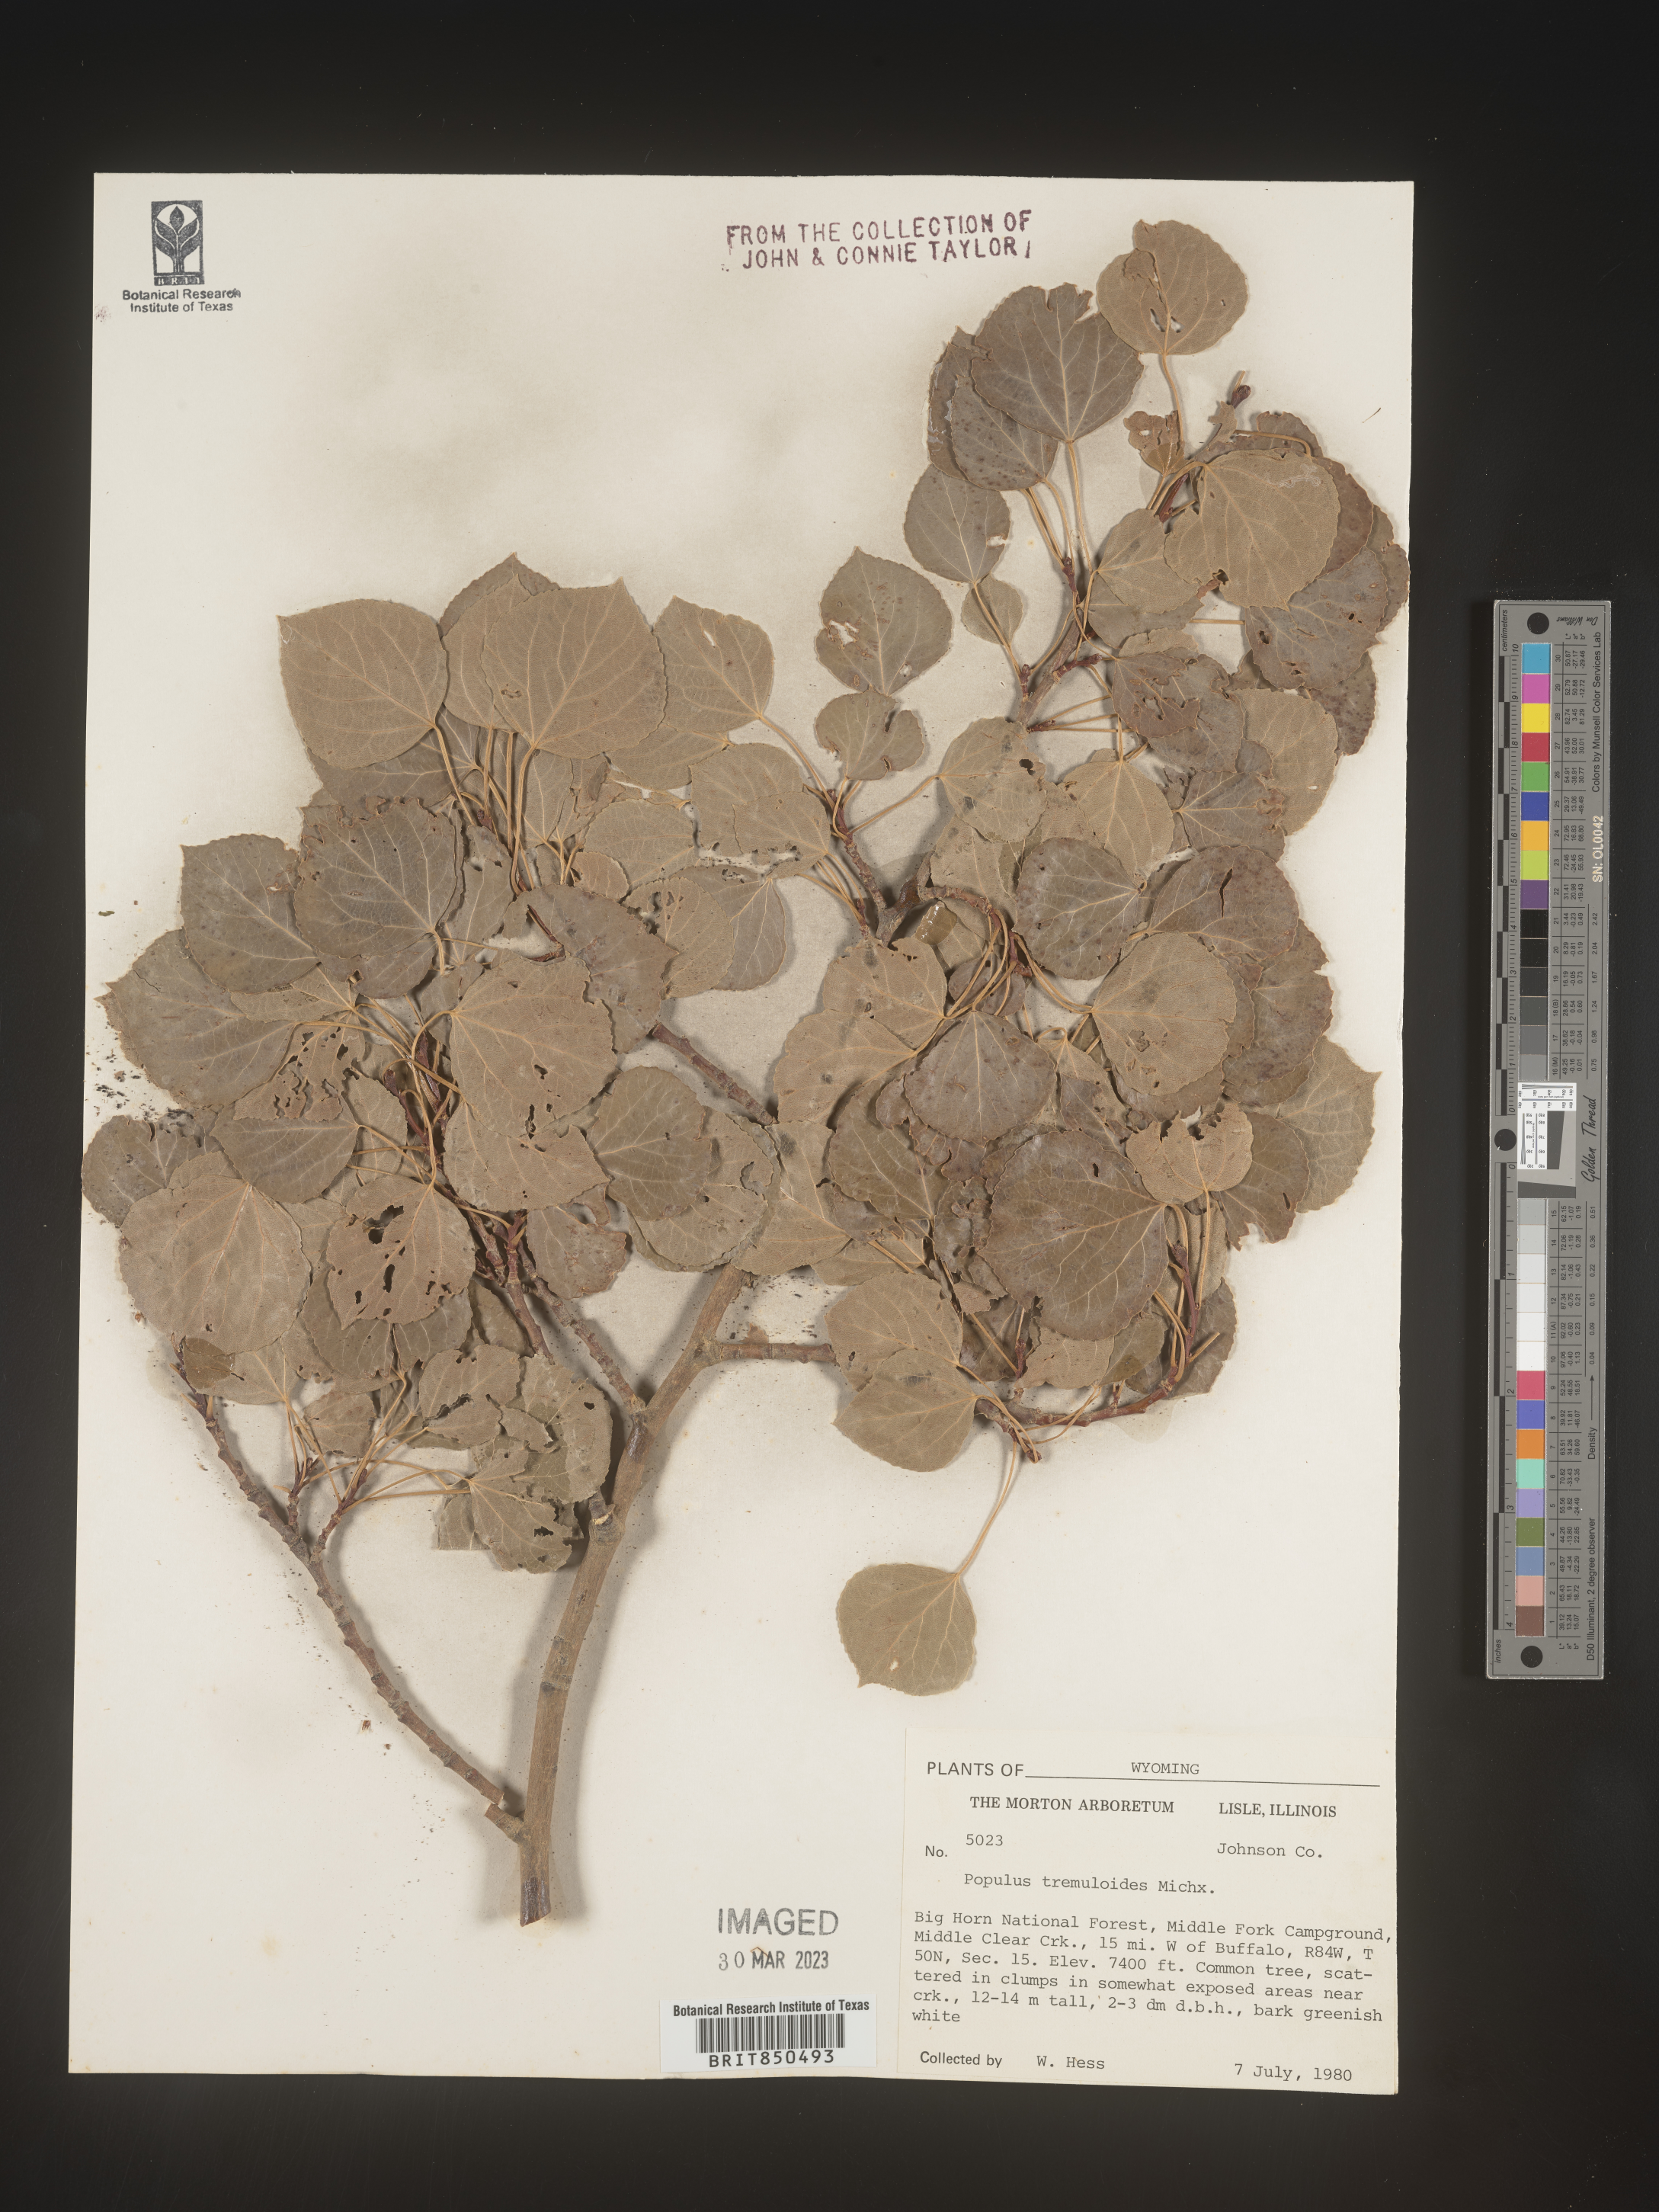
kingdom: Plantae
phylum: Tracheophyta
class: Magnoliopsida
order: Malpighiales
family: Salicaceae
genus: Populus
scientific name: Populus tremuloides
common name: Quaking aspen
